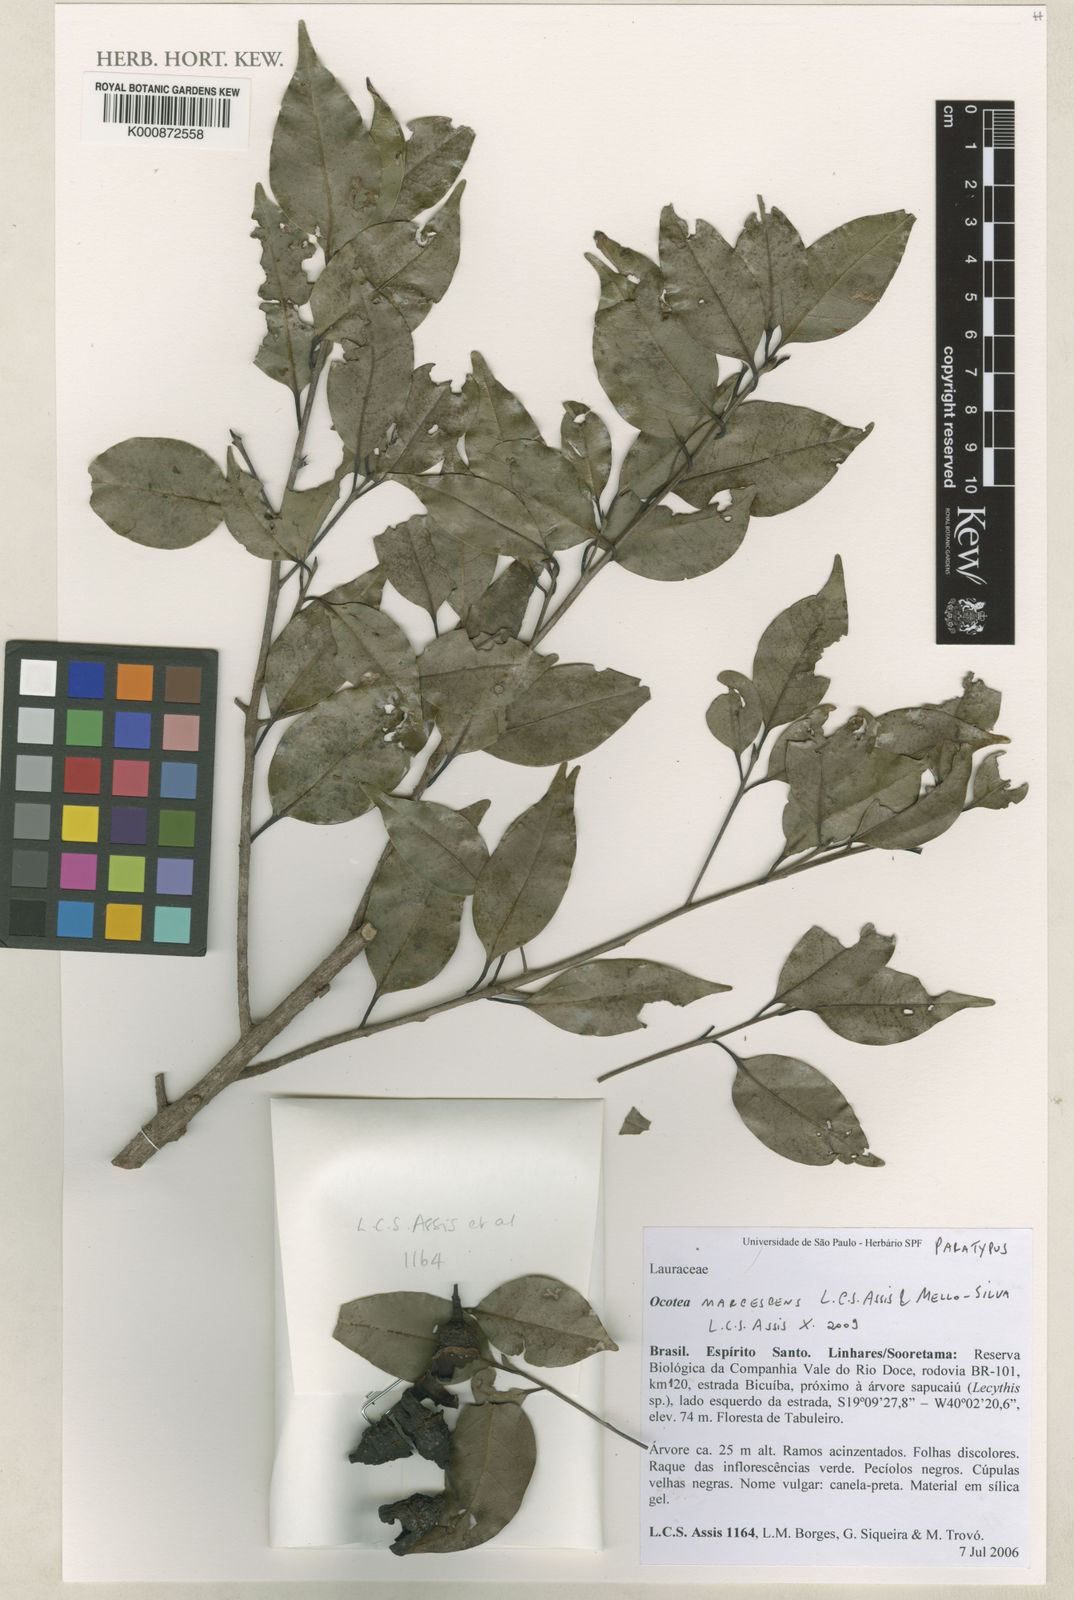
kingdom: Plantae
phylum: Tracheophyta
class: Magnoliopsida
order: Laurales
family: Lauraceae
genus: Ocotea
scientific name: Ocotea marcescens
